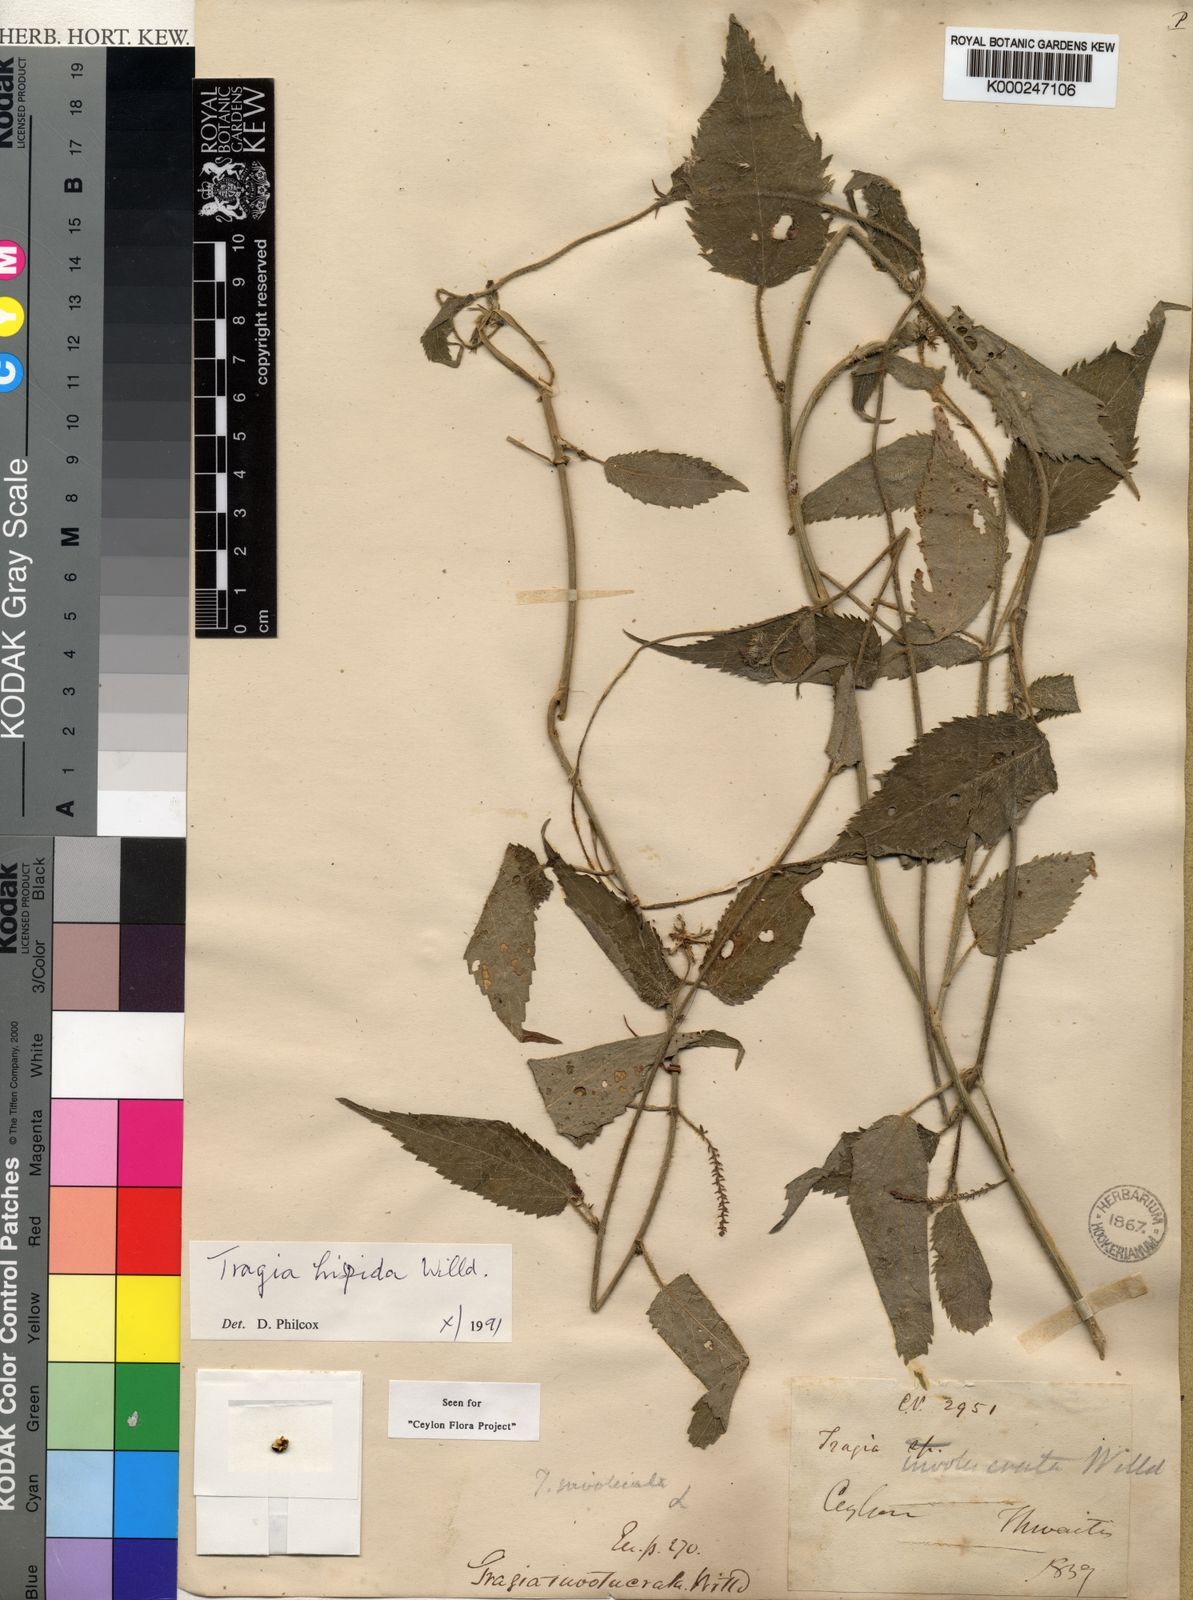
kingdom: Plantae
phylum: Tracheophyta
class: Magnoliopsida
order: Malpighiales
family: Euphorbiaceae
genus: Tragia
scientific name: Tragia hispida
